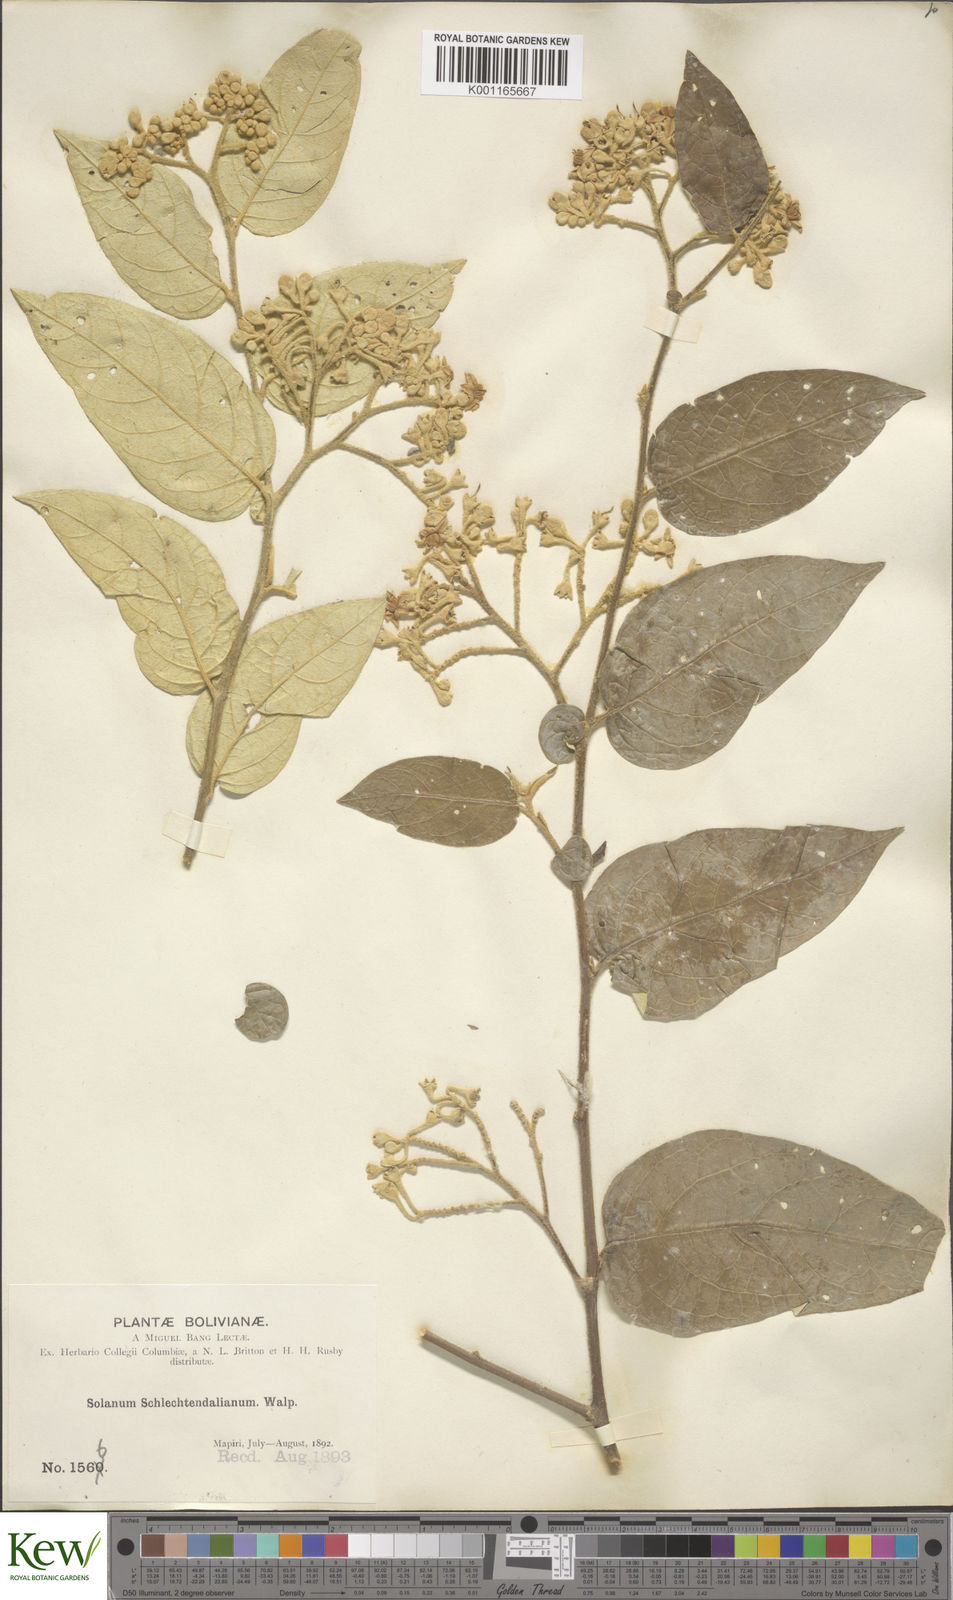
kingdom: Plantae
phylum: Tracheophyta
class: Magnoliopsida
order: Solanales
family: Solanaceae
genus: Solanum
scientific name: Solanum schlechtendalianum
